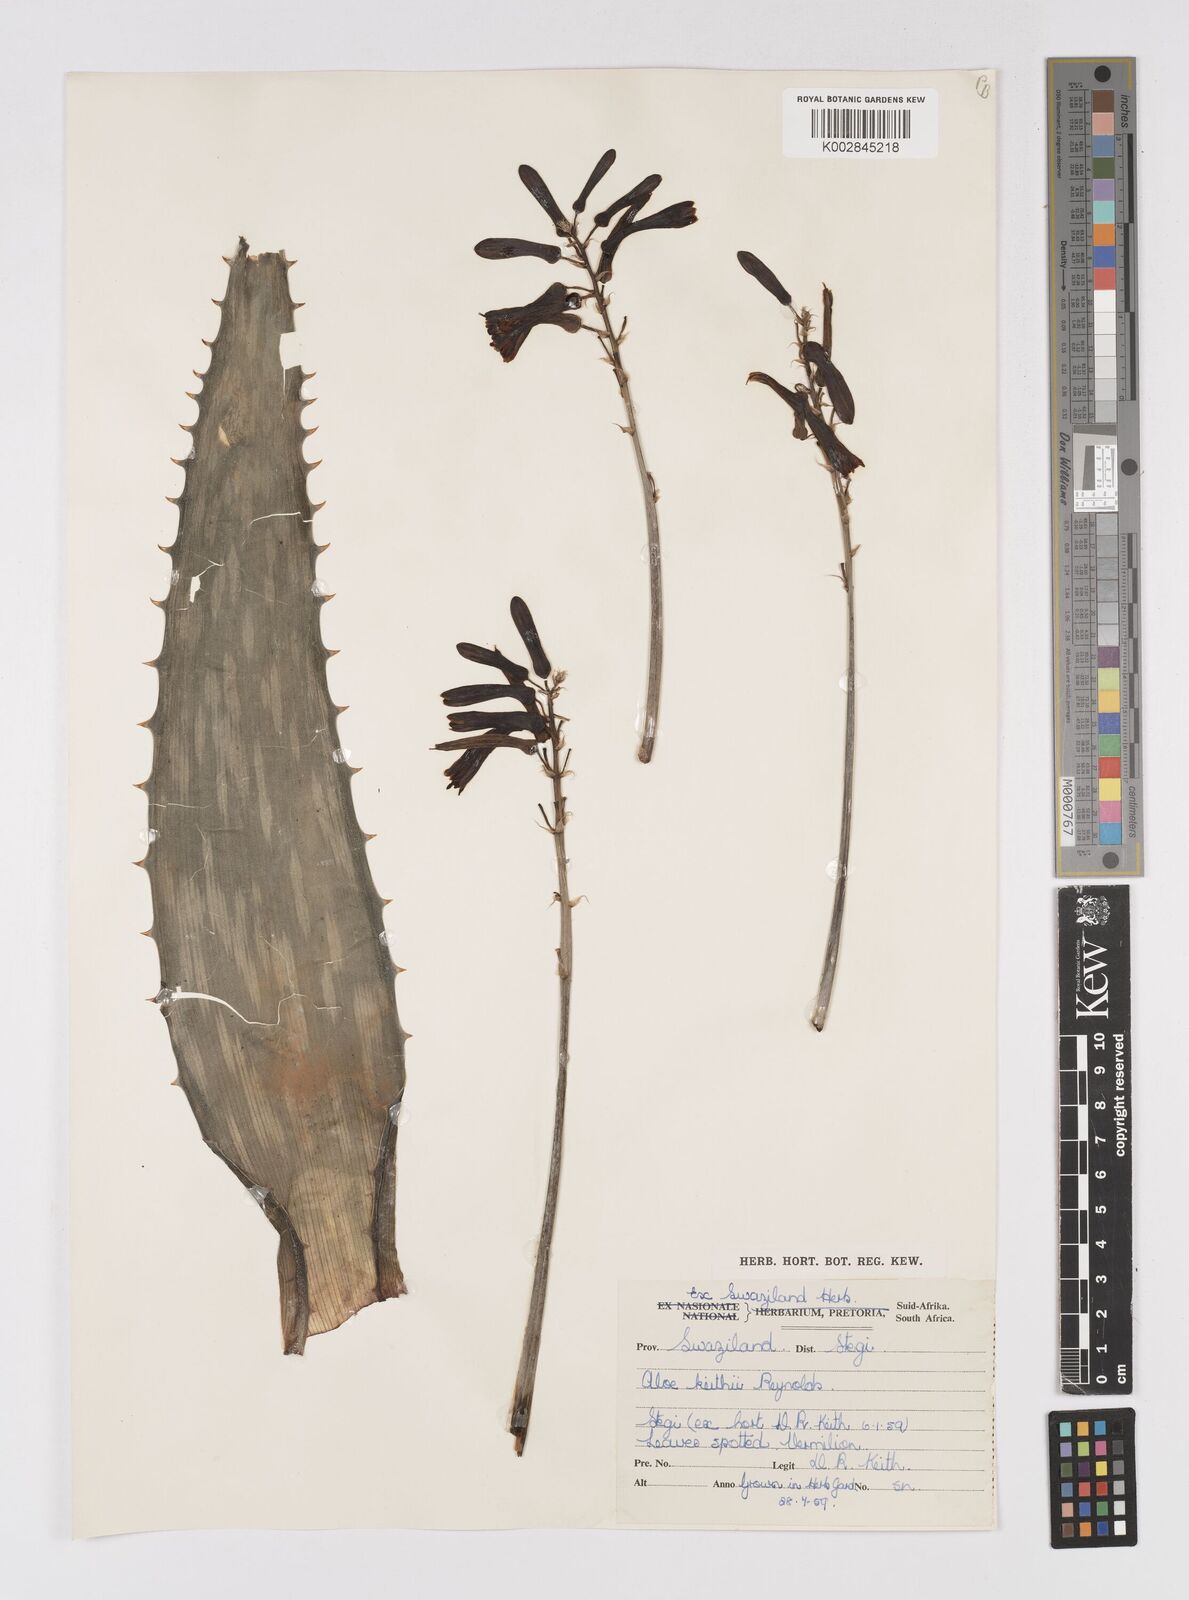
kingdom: Plantae
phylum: Tracheophyta
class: Liliopsida
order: Asparagales
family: Asphodelaceae
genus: Aloe
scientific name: Aloe parvibracteata
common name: Lowveld spotted aloe
